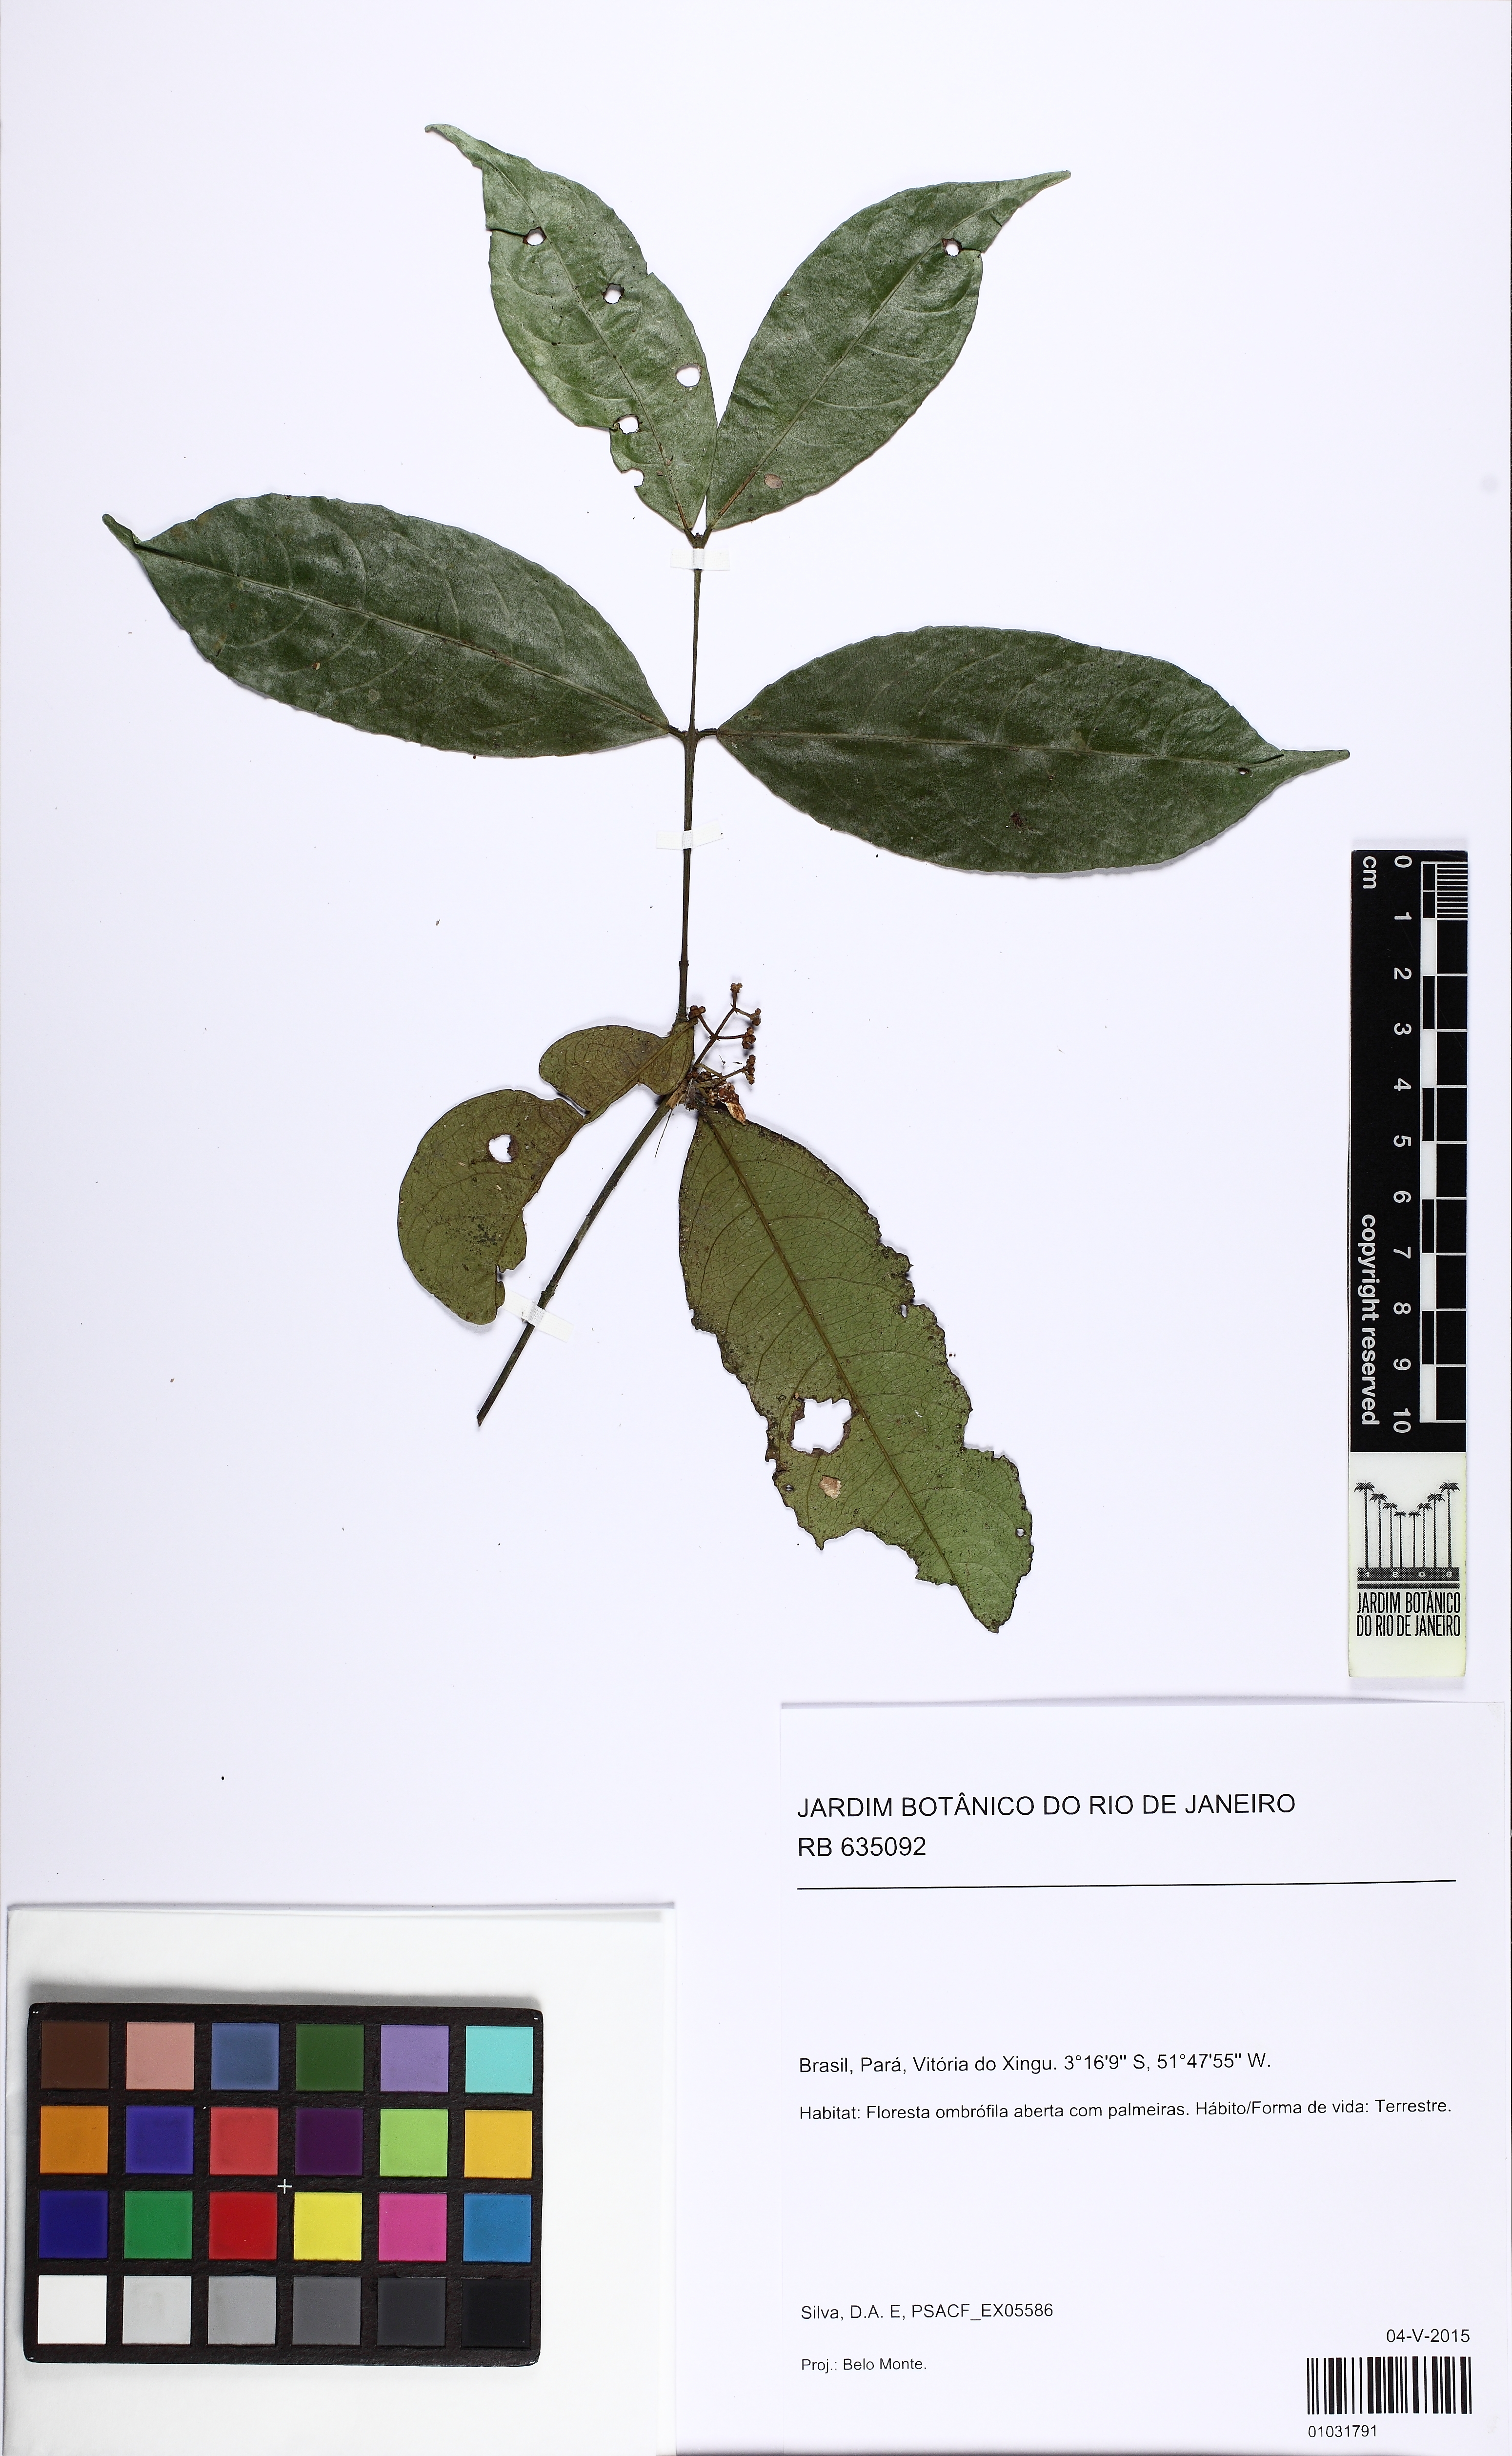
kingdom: Plantae
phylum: Tracheophyta
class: Magnoliopsida
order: Celastrales
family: Celastraceae
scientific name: Celastraceae
